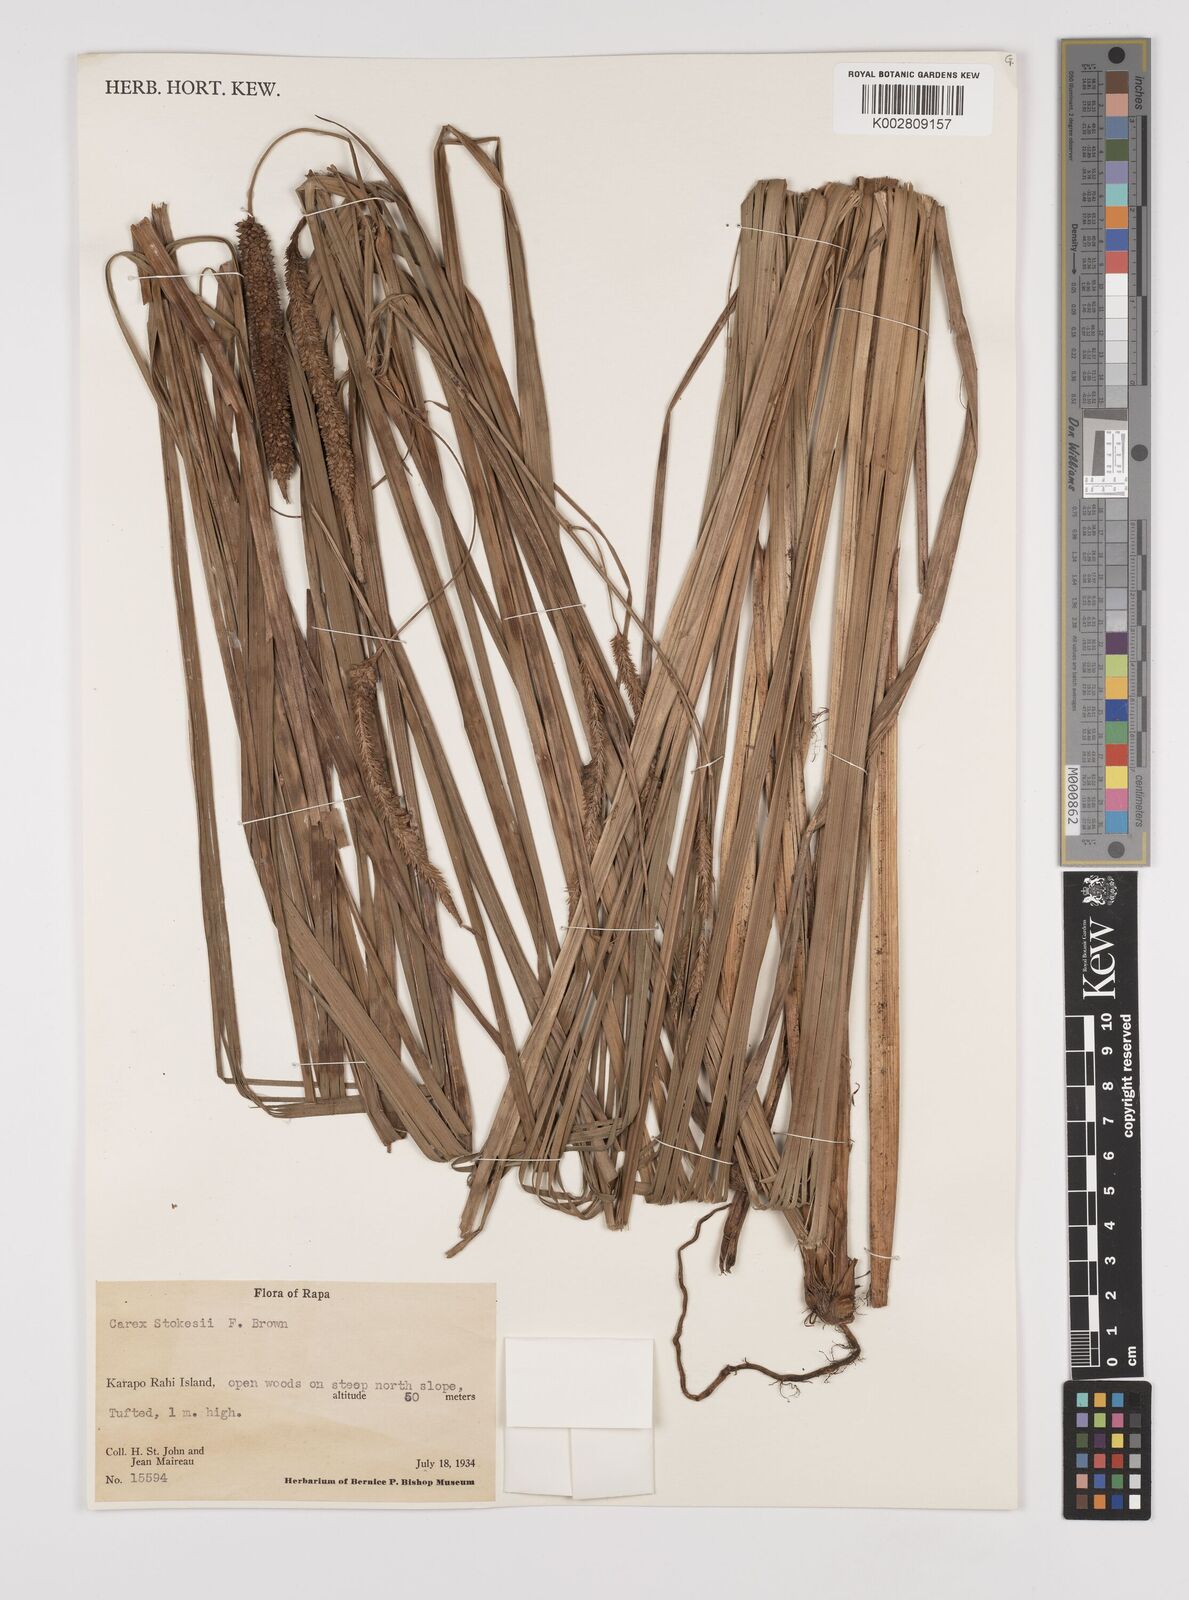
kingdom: Plantae
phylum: Tracheophyta
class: Liliopsida
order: Poales
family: Cyperaceae
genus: Carex
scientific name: Carex stokesii
